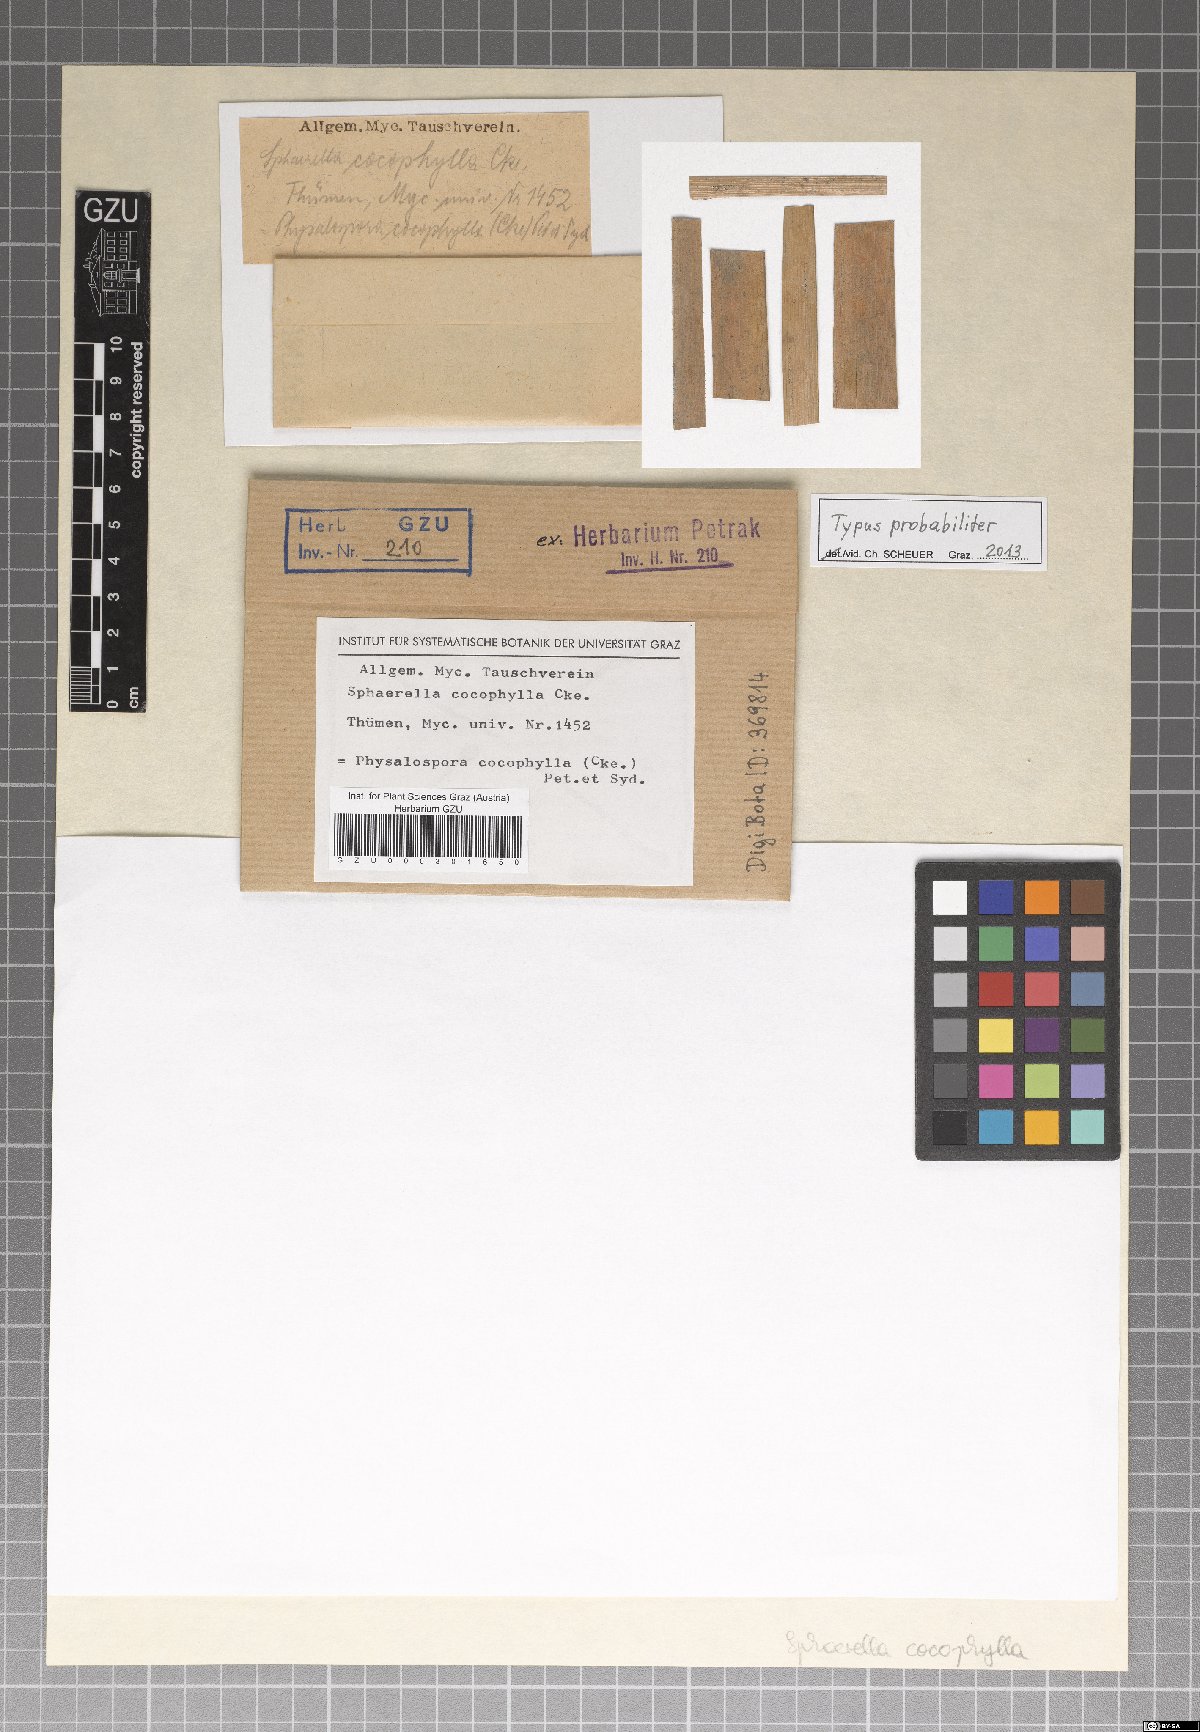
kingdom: Fungi
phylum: Ascomycota
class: Dothideomycetes
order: Mycosphaerellales
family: Mycosphaerellaceae
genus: Sphaerella
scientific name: Sphaerella
